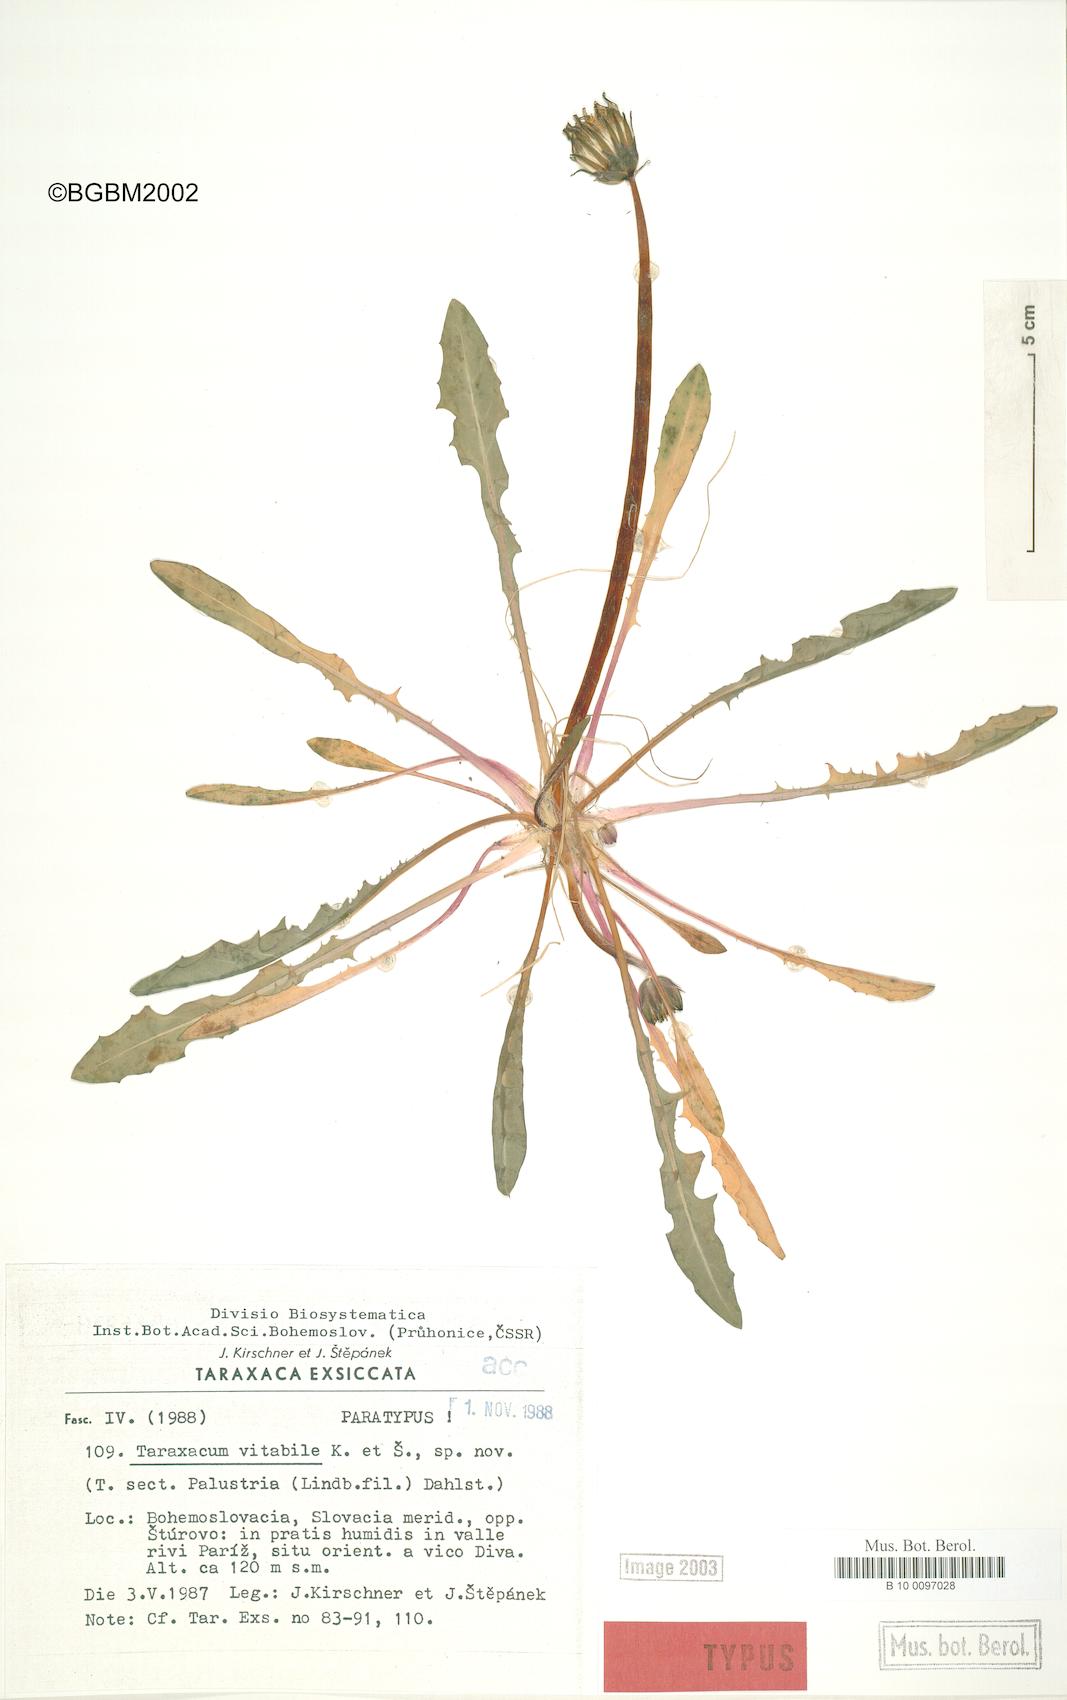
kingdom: Plantae
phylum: Tracheophyta
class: Magnoliopsida
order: Asterales
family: Asteraceae
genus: Taraxacum
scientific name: Taraxacum vindobonense
